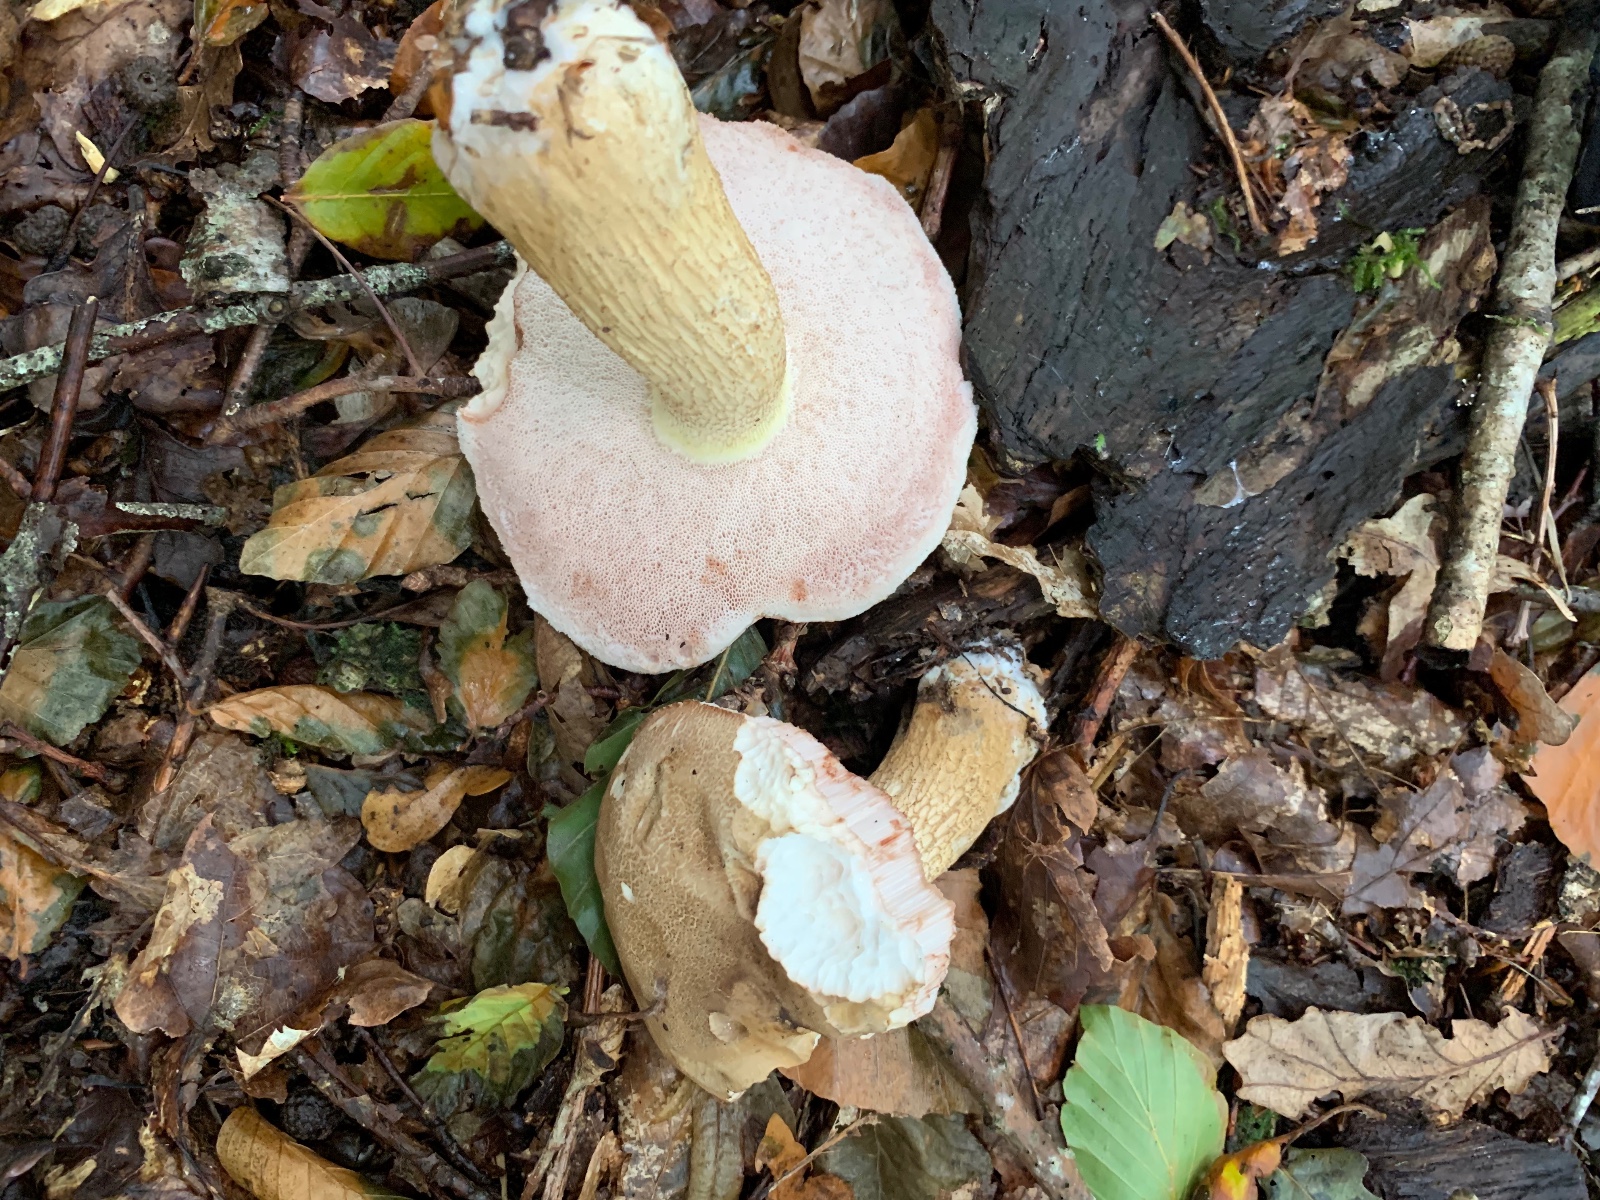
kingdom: Fungi
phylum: Basidiomycota
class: Agaricomycetes
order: Boletales
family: Boletaceae
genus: Tylopilus
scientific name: Tylopilus felleus
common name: galderørhat
